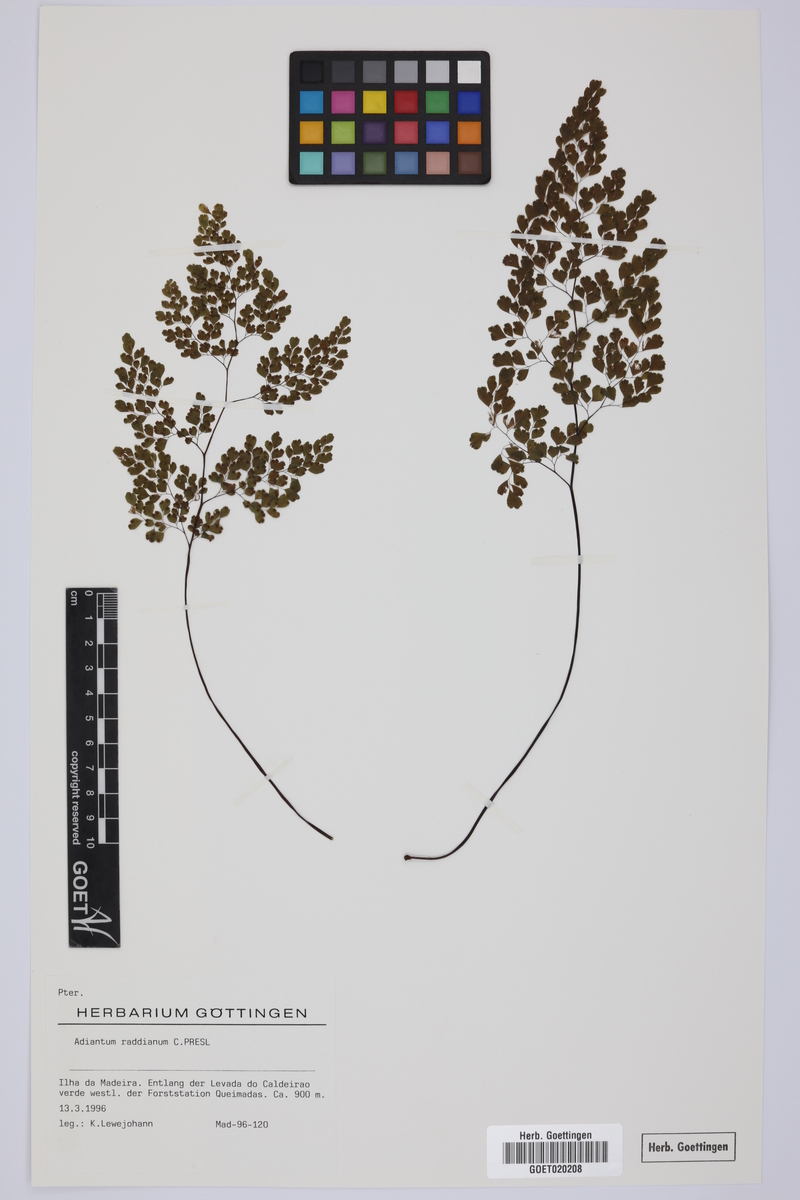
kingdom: Plantae
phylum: Tracheophyta
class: Polypodiopsida
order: Polypodiales
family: Pteridaceae
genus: Adiantum
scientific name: Adiantum raddianum
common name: Delta maidenhair fern
